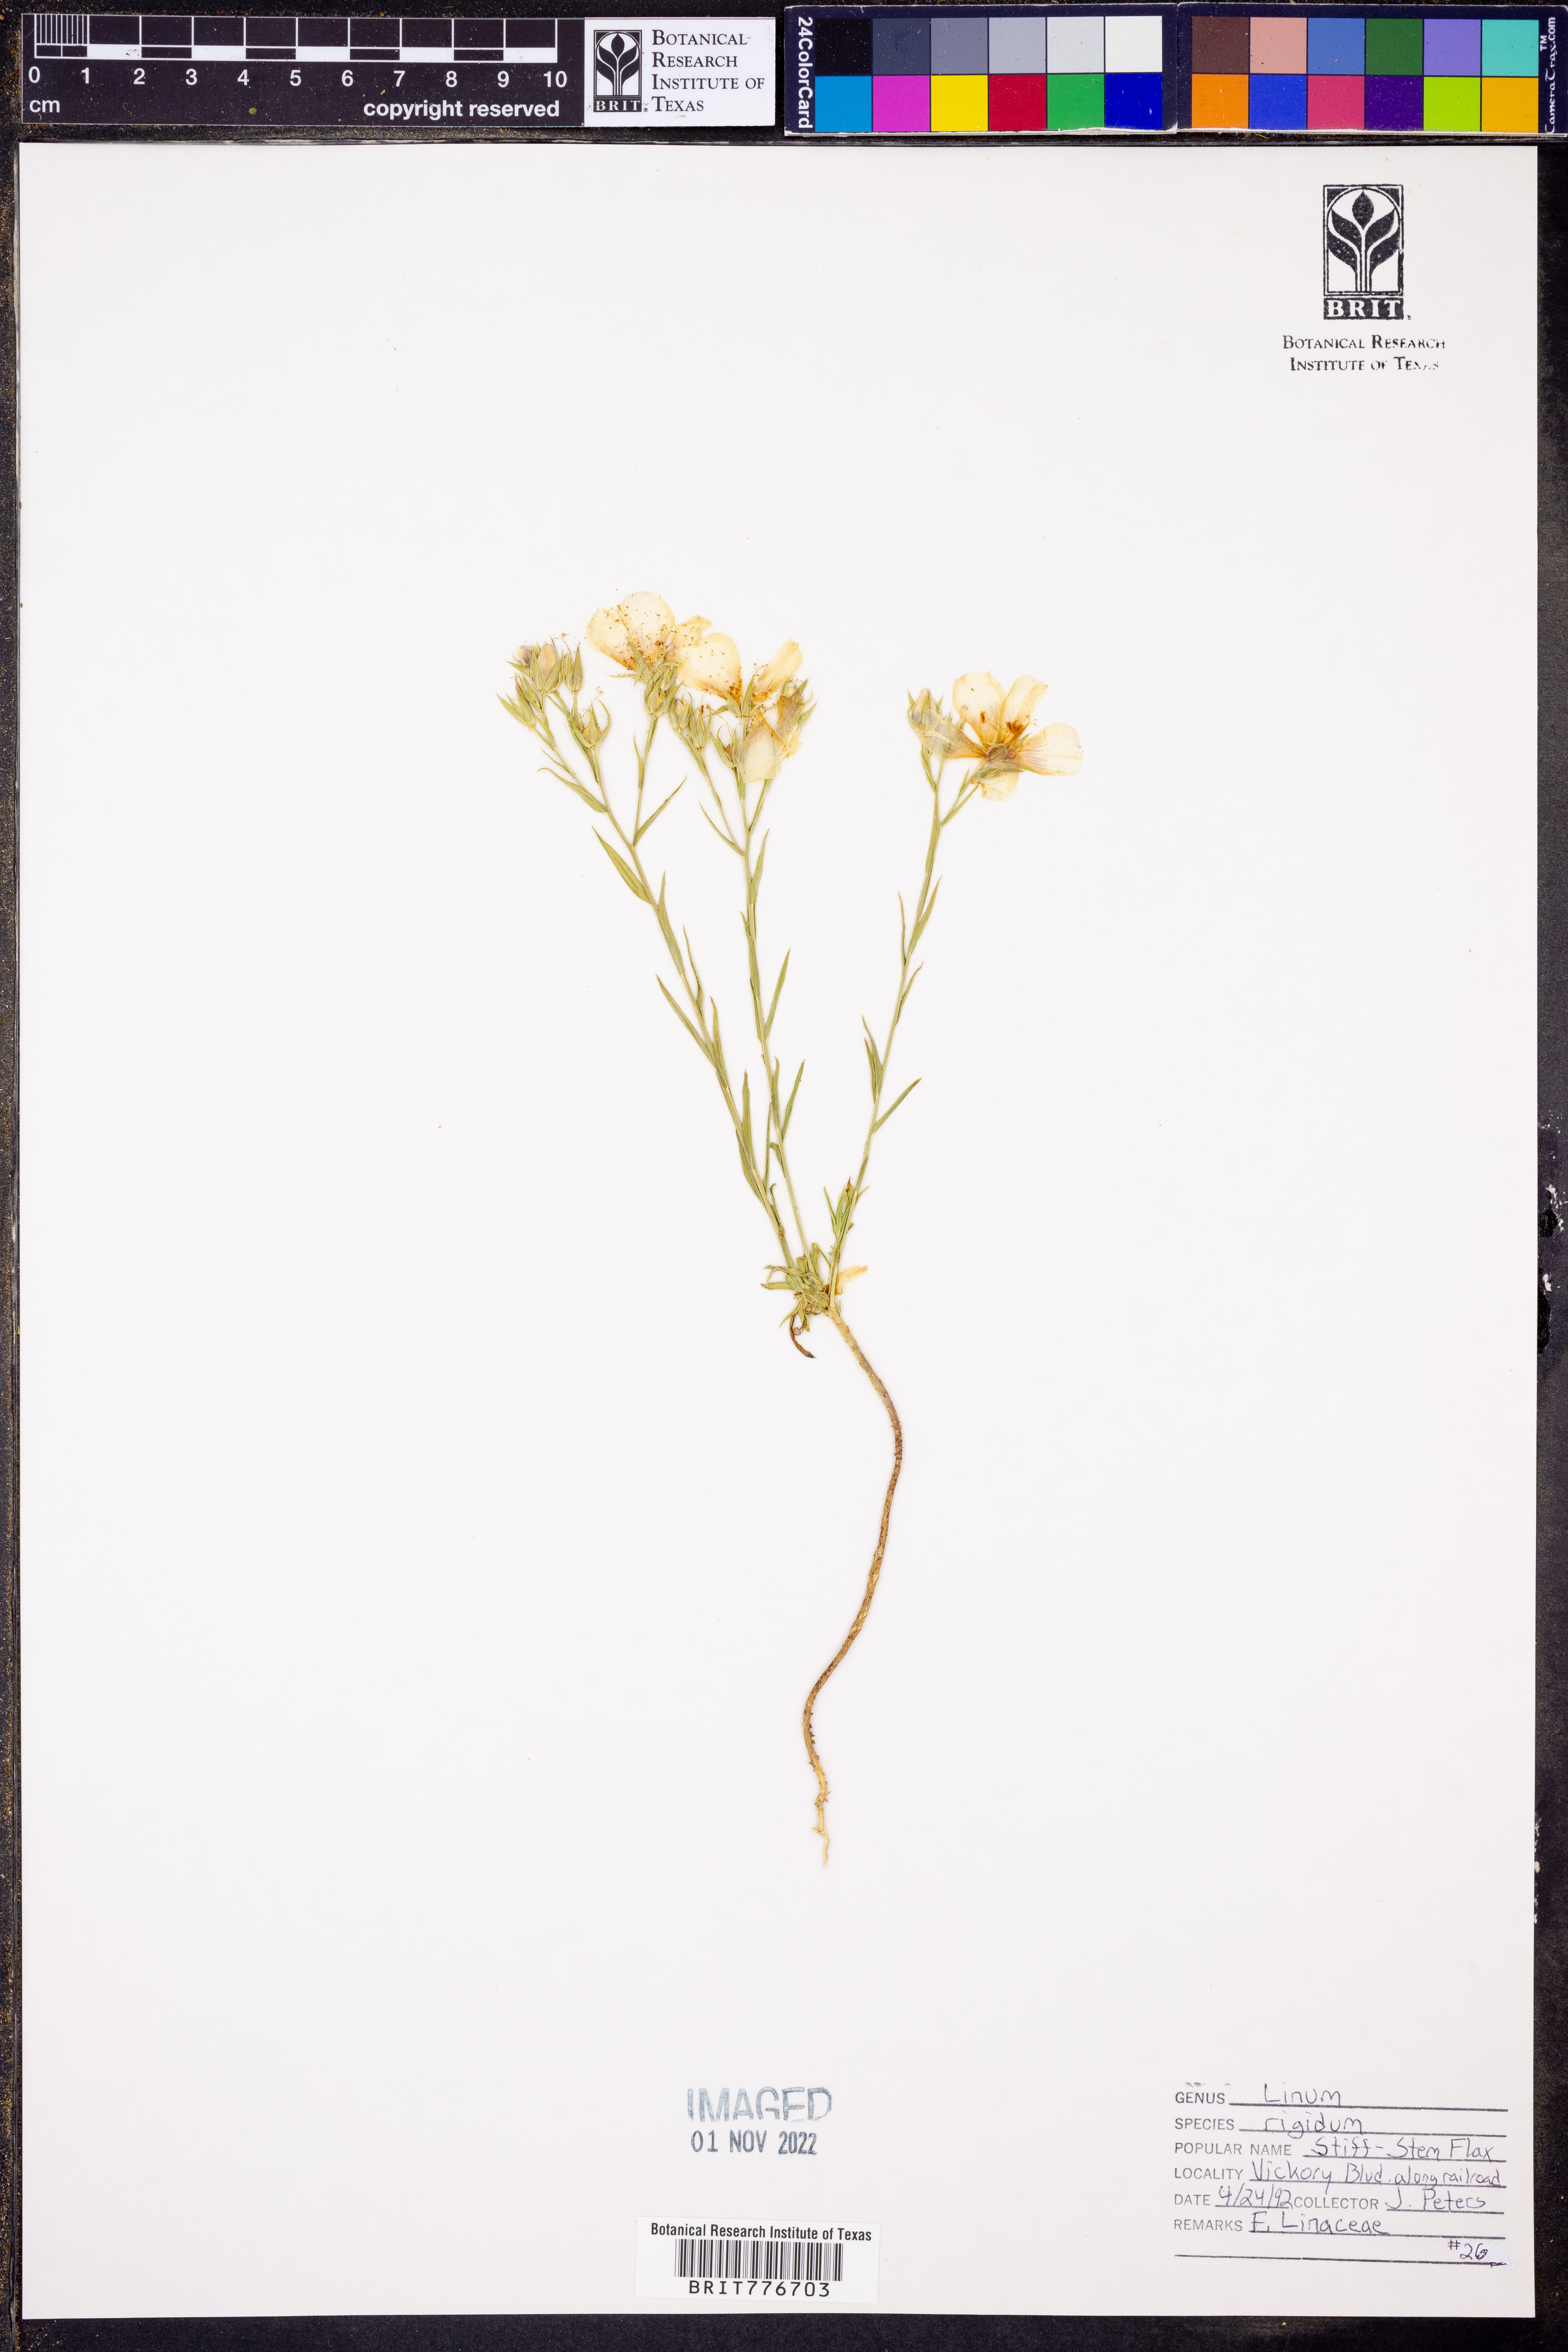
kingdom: Plantae
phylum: Tracheophyta
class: Magnoliopsida
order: Malpighiales
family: Linaceae
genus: Linum
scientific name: Linum rigidum
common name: Stiff-stem flax
